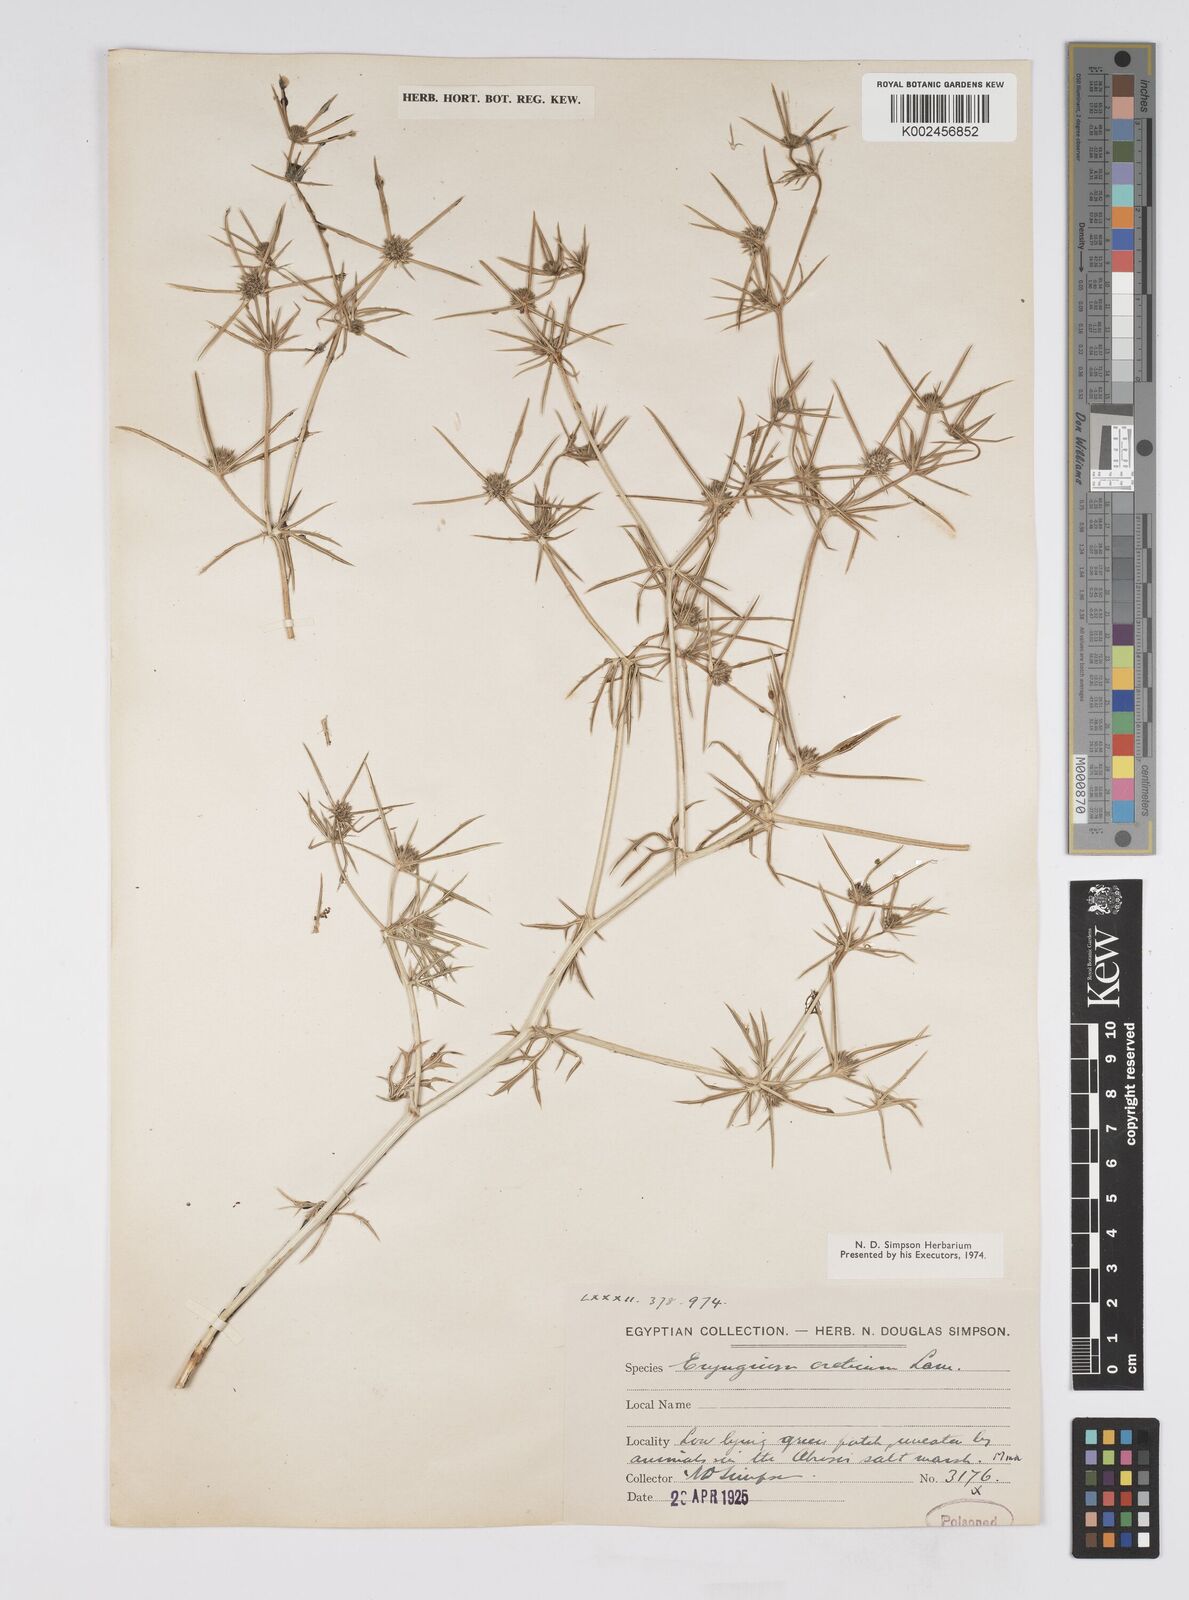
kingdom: Plantae
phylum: Tracheophyta
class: Magnoliopsida
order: Apiales
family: Apiaceae
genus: Eryngium
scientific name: Eryngium creticum
